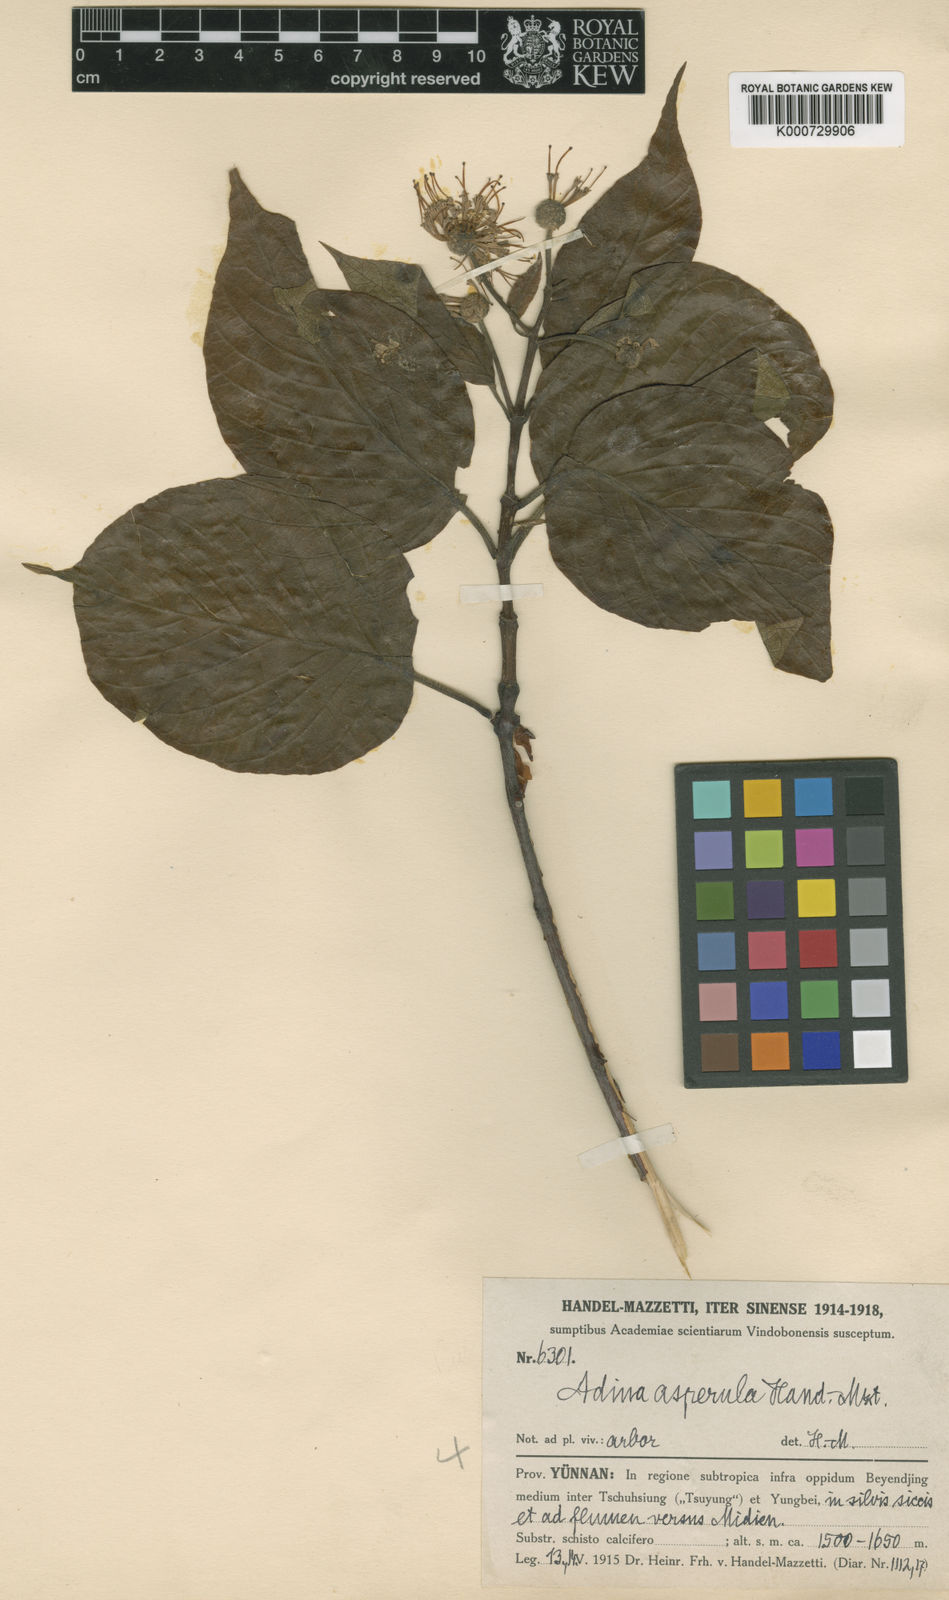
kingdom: Plantae
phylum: Tracheophyta
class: Magnoliopsida
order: Gentianales
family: Rubiaceae
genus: Adina
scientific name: Adina racemosa
